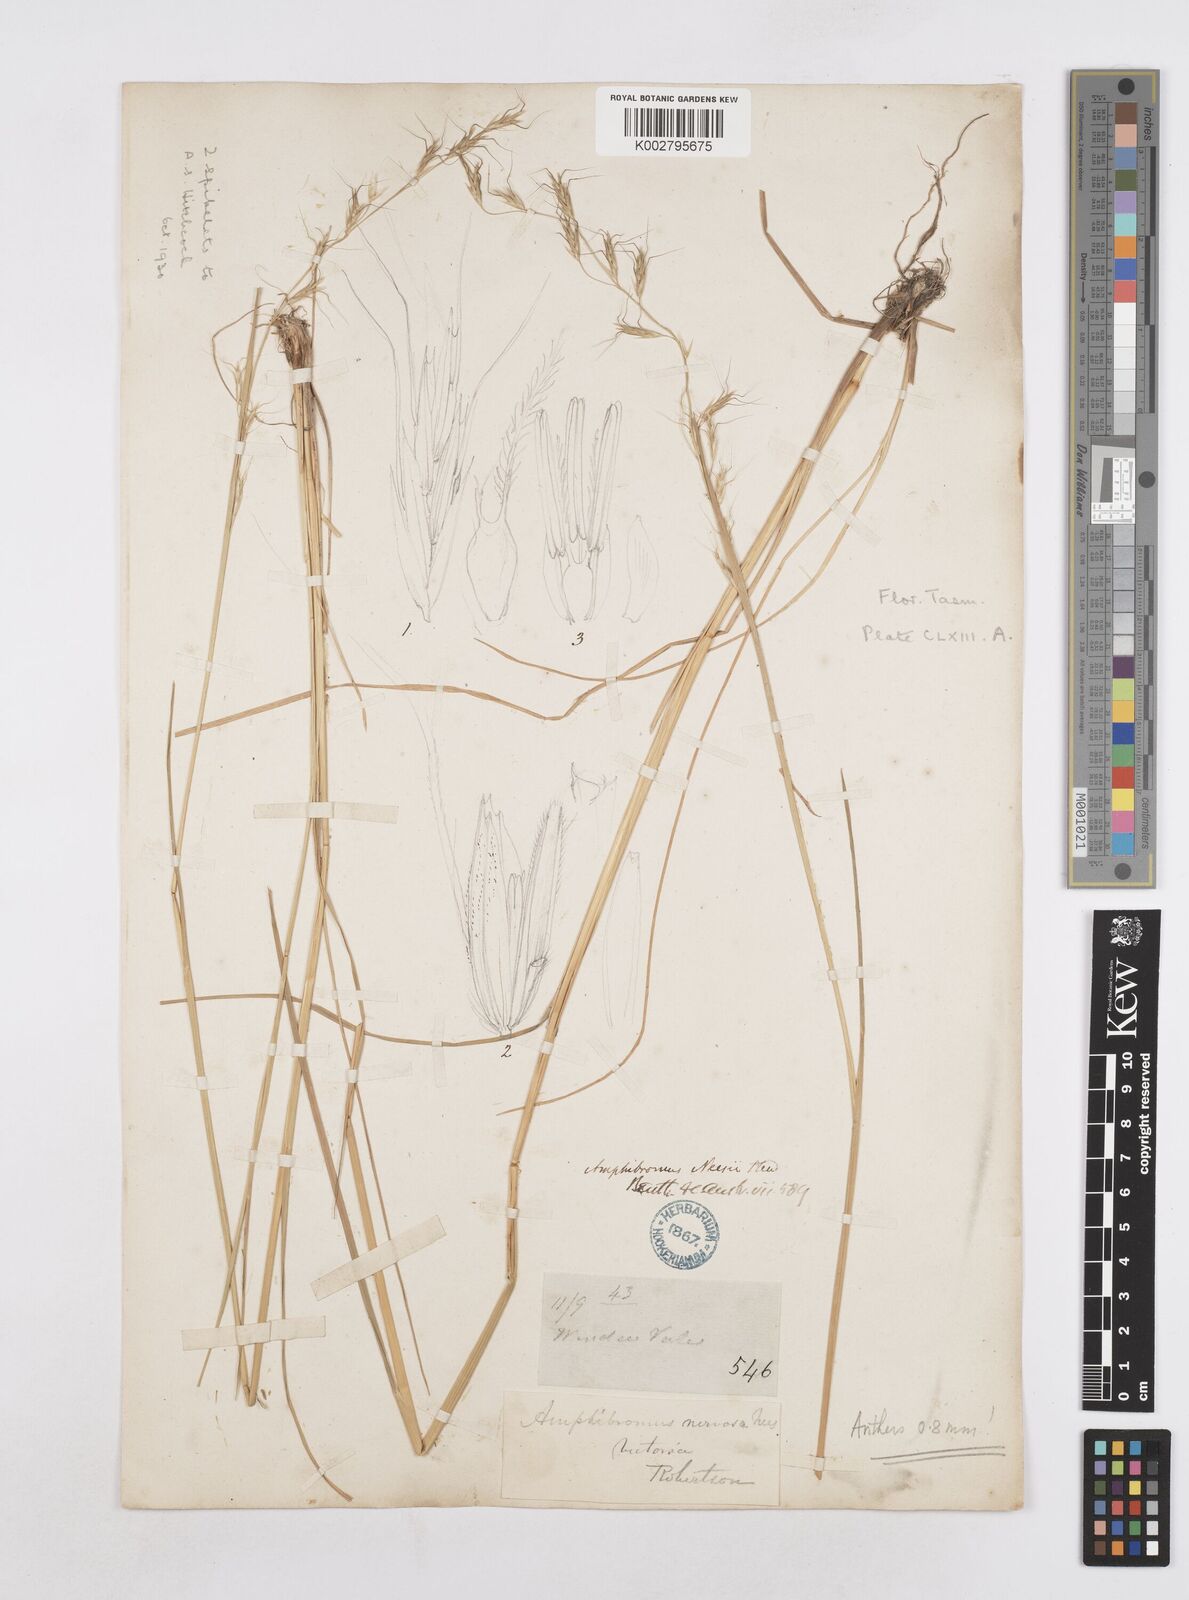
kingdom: Plantae
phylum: Tracheophyta
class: Liliopsida
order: Poales
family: Poaceae
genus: Amphibromus
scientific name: Amphibromus neesii
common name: Australian wallaby grass
